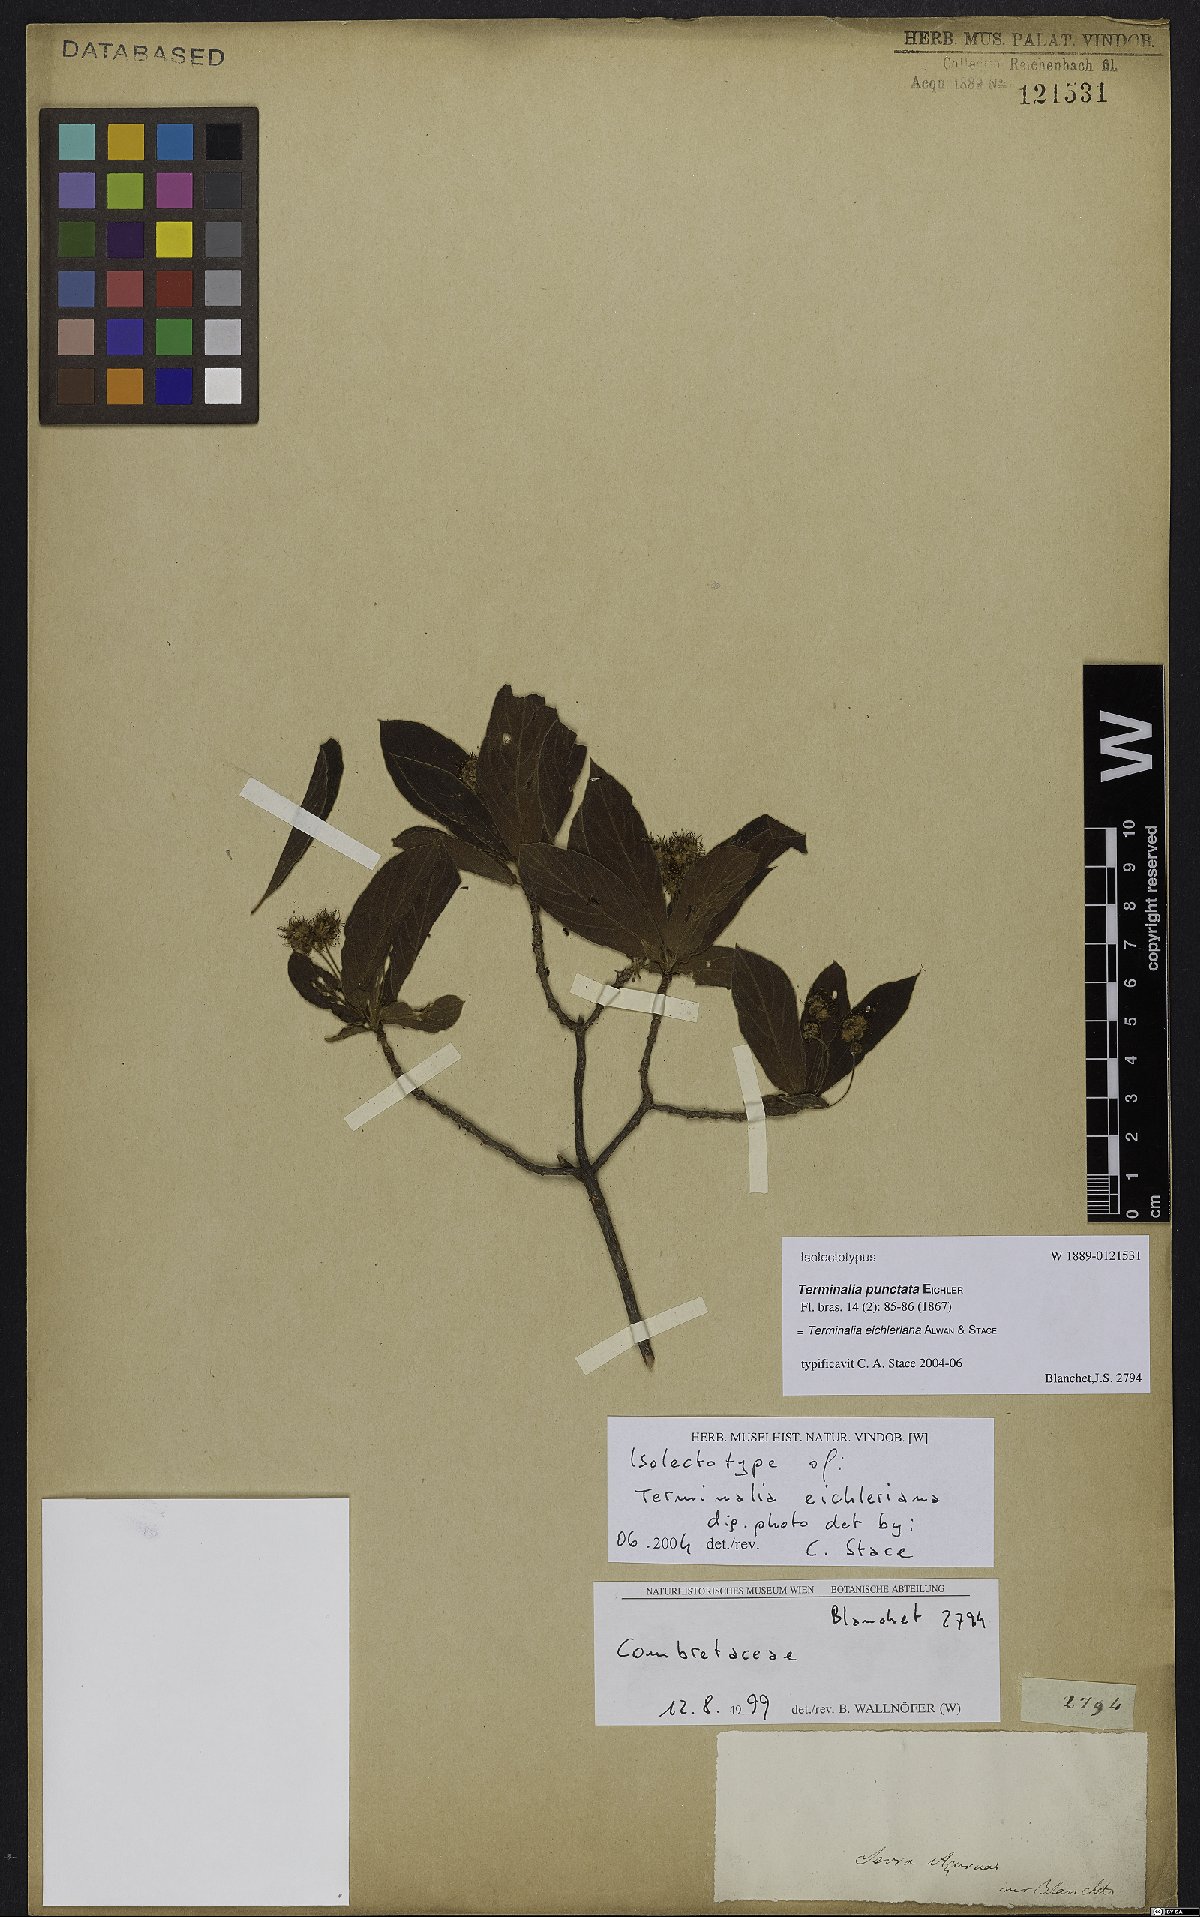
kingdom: Plantae
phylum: Tracheophyta
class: Magnoliopsida
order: Myrtales
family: Combretaceae
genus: Terminalia
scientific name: Terminalia eichleriana
